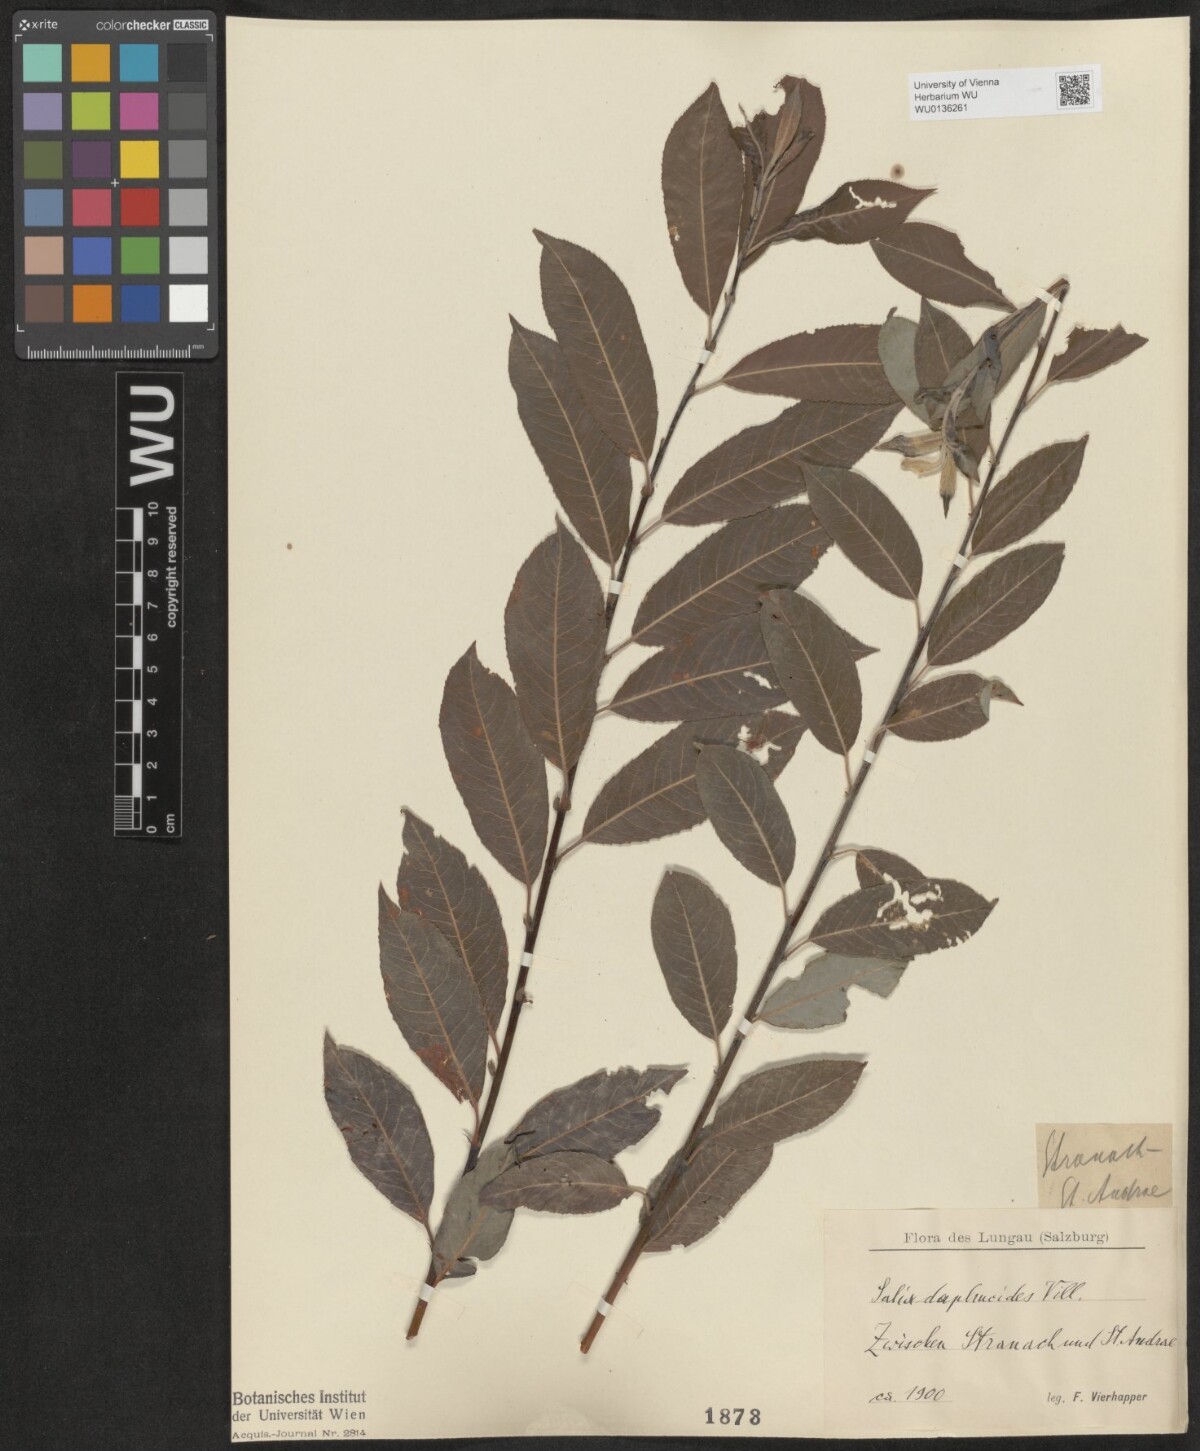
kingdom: Plantae
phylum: Tracheophyta
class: Magnoliopsida
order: Malpighiales
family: Salicaceae
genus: Salix
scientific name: Salix daphnoides
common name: European violet-willow
